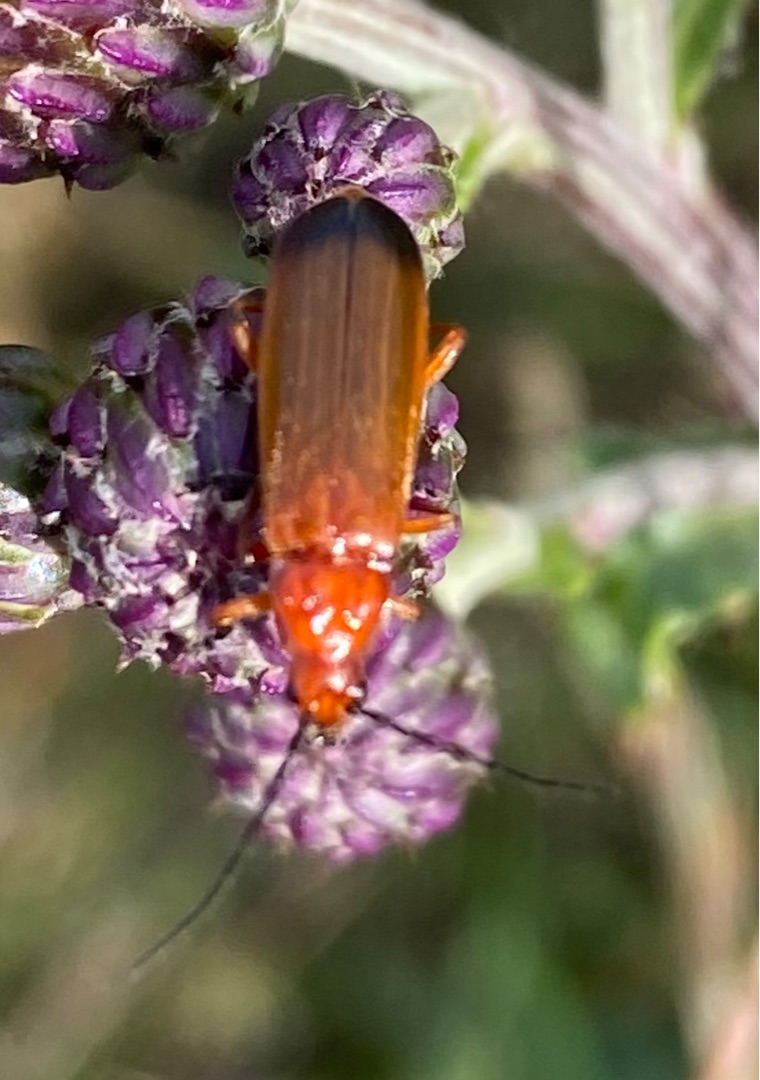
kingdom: Animalia
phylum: Arthropoda
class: Insecta
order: Coleoptera
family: Cantharidae
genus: Rhagonycha
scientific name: Rhagonycha fulva
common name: Præstebille
